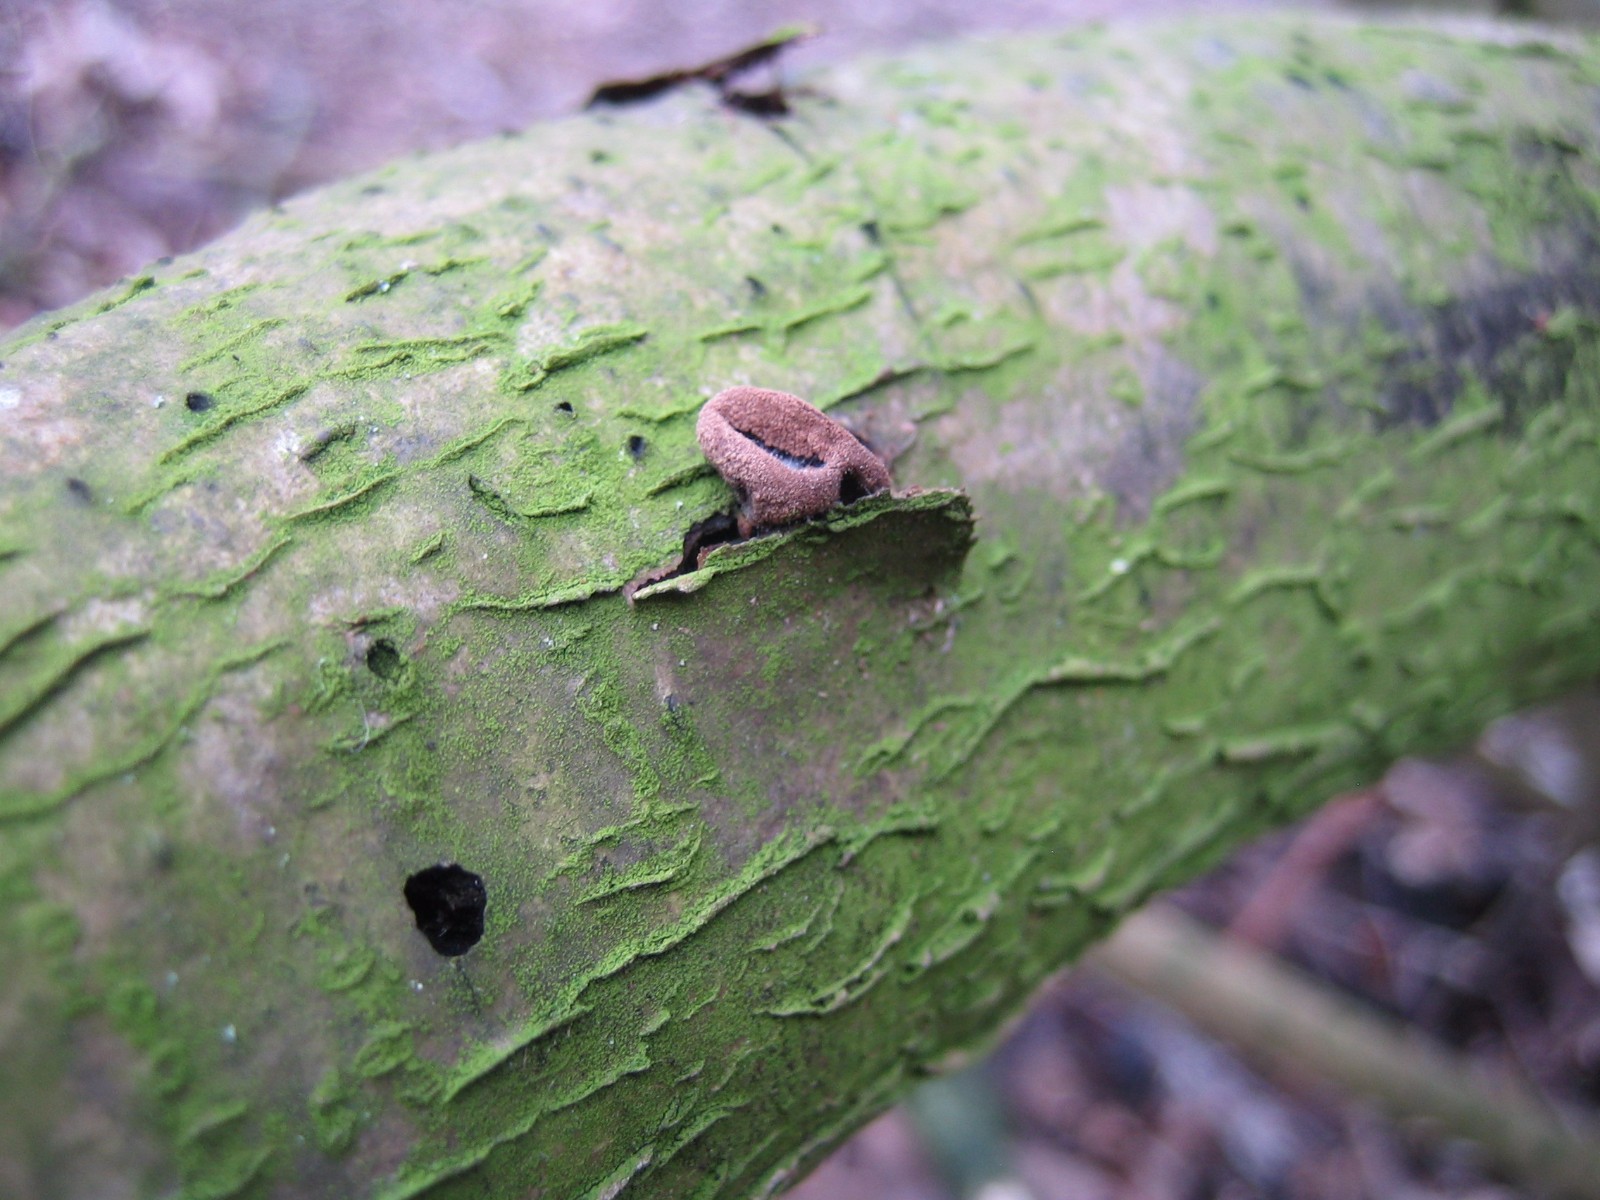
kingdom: Fungi
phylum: Ascomycota
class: Leotiomycetes
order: Helotiales
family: Cenangiaceae
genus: Encoelia
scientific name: Encoelia furfuracea
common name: hassel-læderskive
